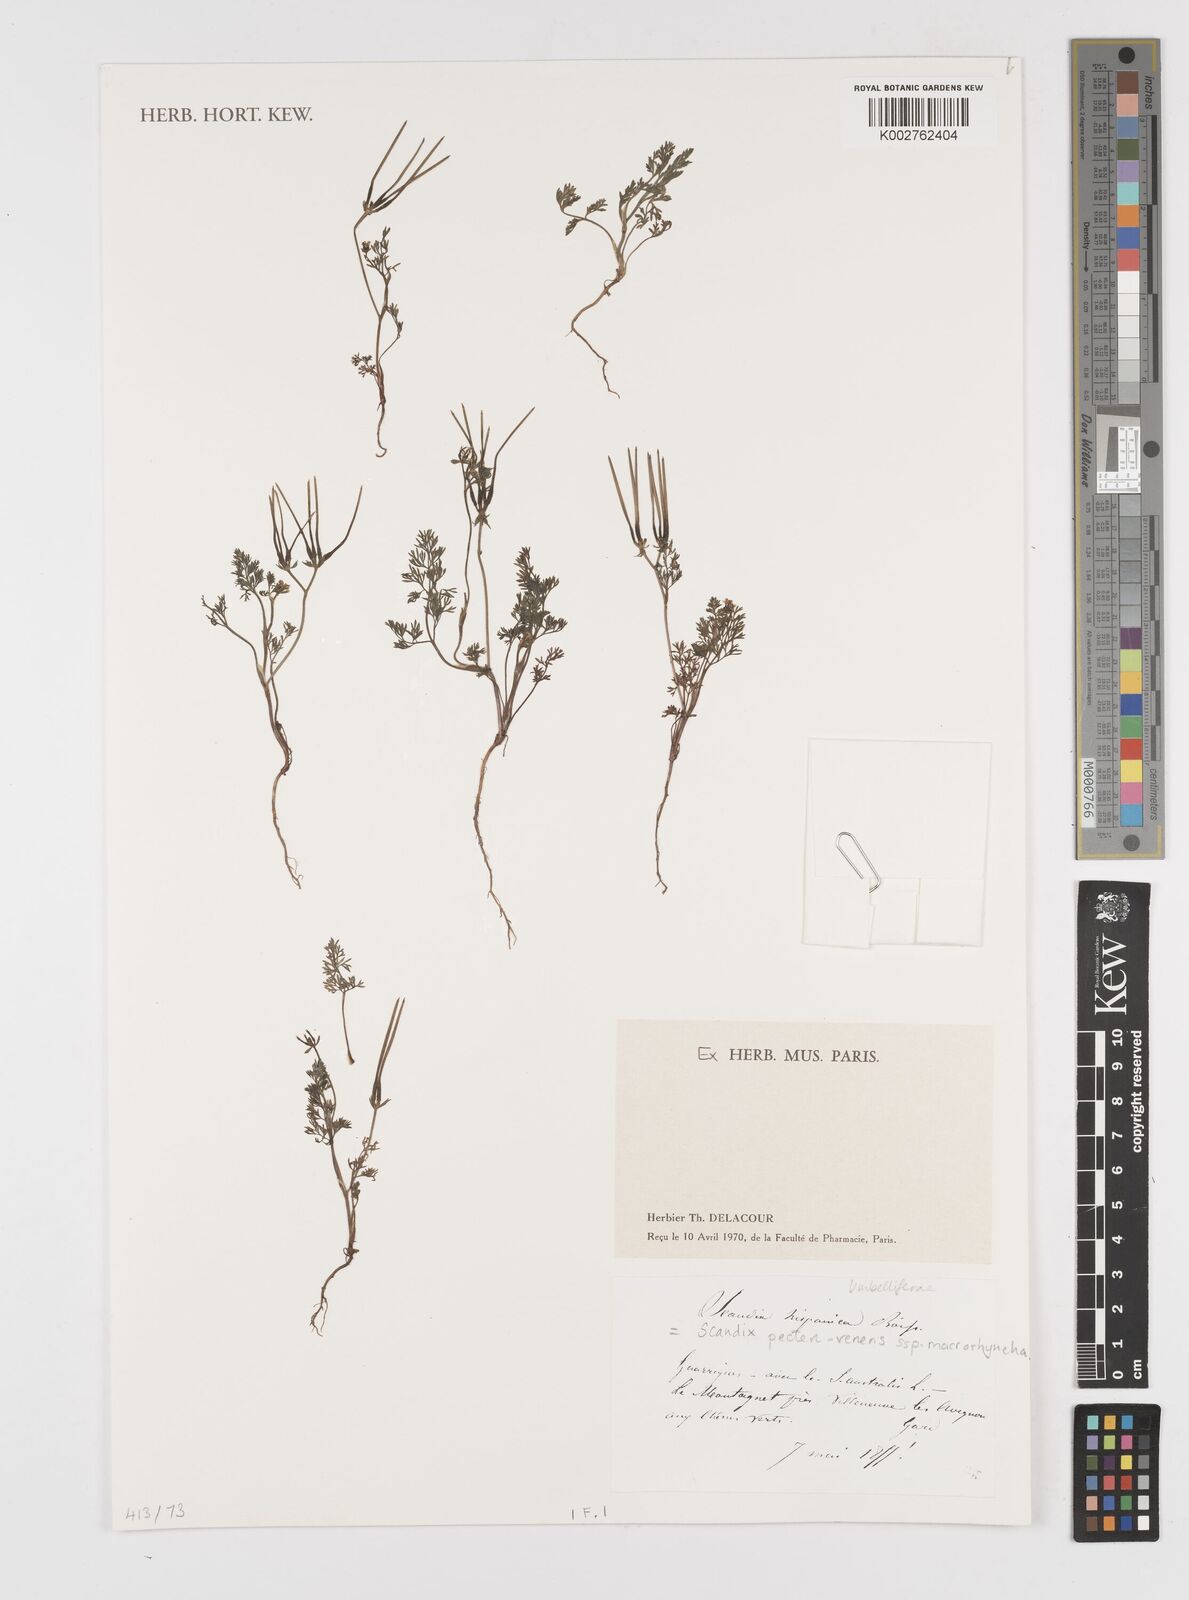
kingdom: Plantae
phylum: Tracheophyta
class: Magnoliopsida
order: Apiales
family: Apiaceae
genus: Scandix
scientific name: Scandix pecten-veneris
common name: Shepherd's-needle
